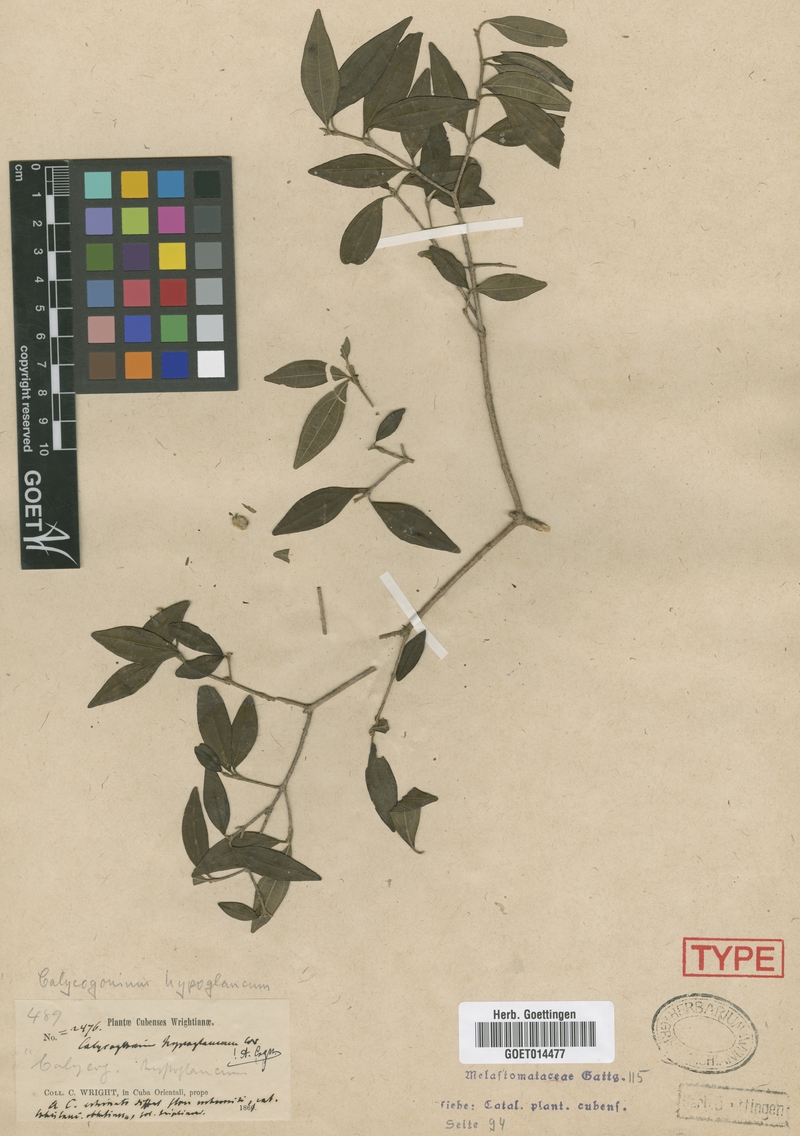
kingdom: Plantae
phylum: Tracheophyta
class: Magnoliopsida
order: Myrtales
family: Melastomataceae
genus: Miconia
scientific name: Miconia hypoglauca
